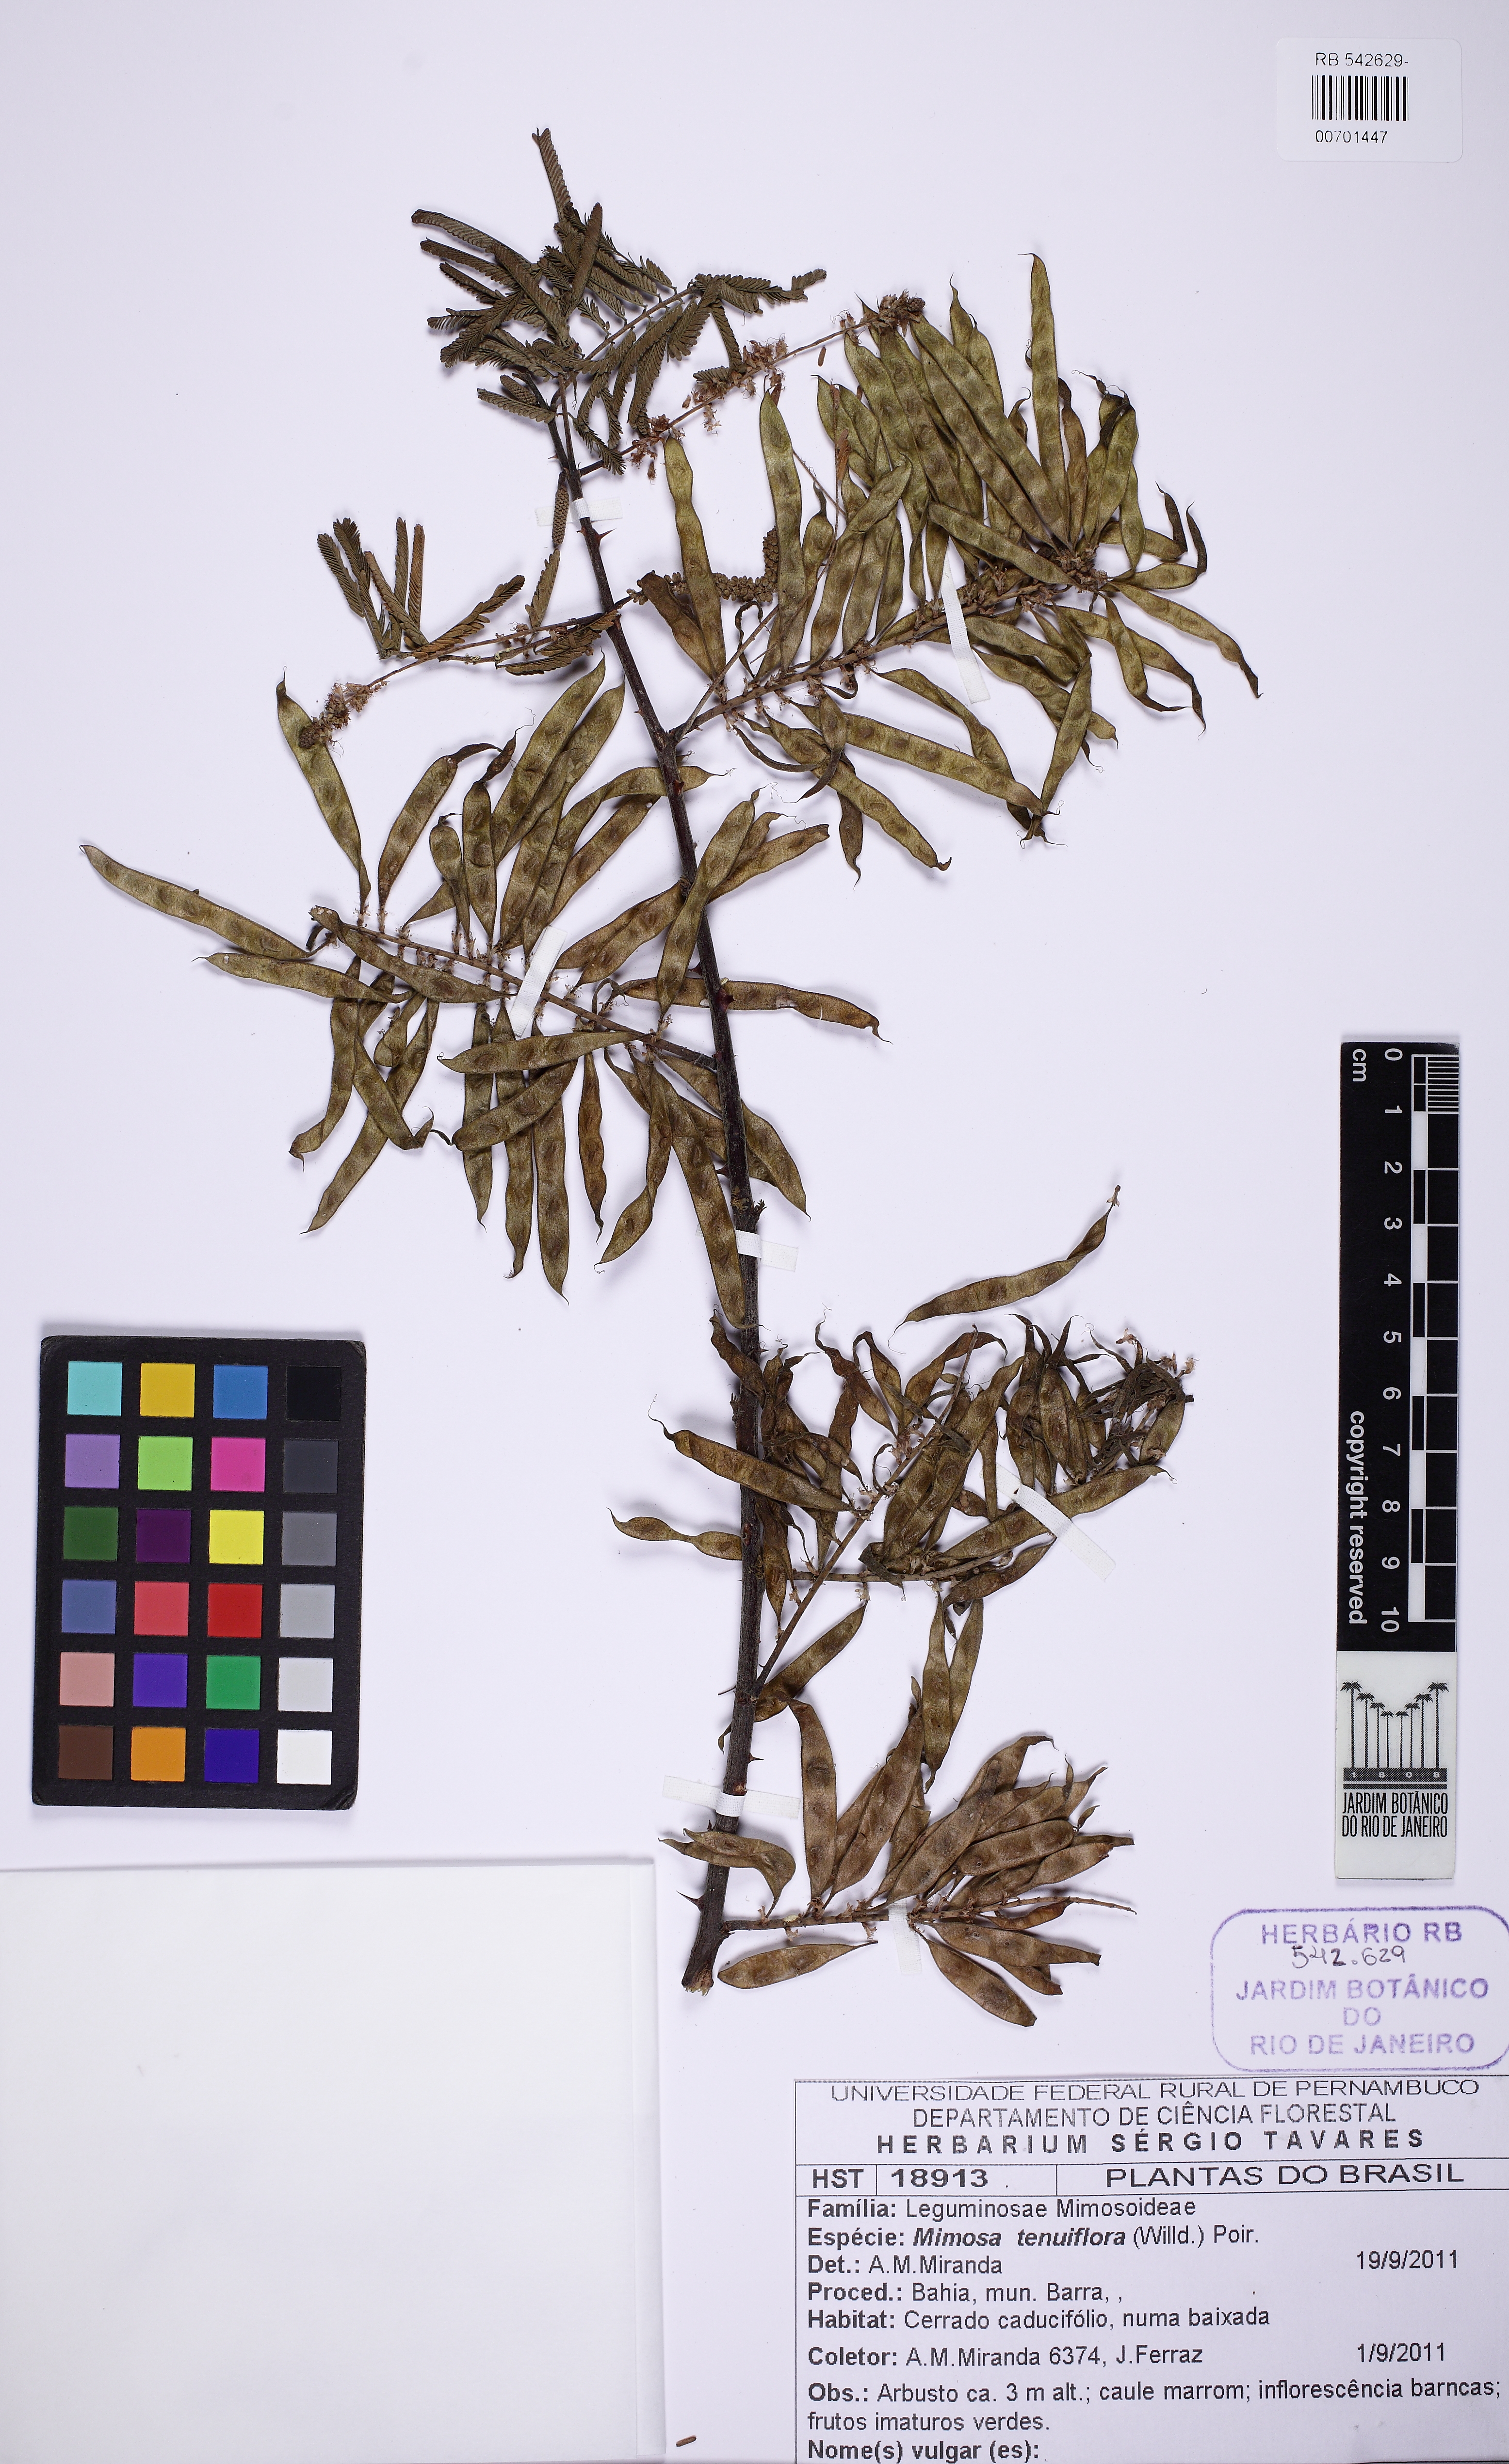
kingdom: Plantae
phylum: Tracheophyta
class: Magnoliopsida
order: Fabales
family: Fabaceae
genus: Mimosa
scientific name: Mimosa tenuiflora
